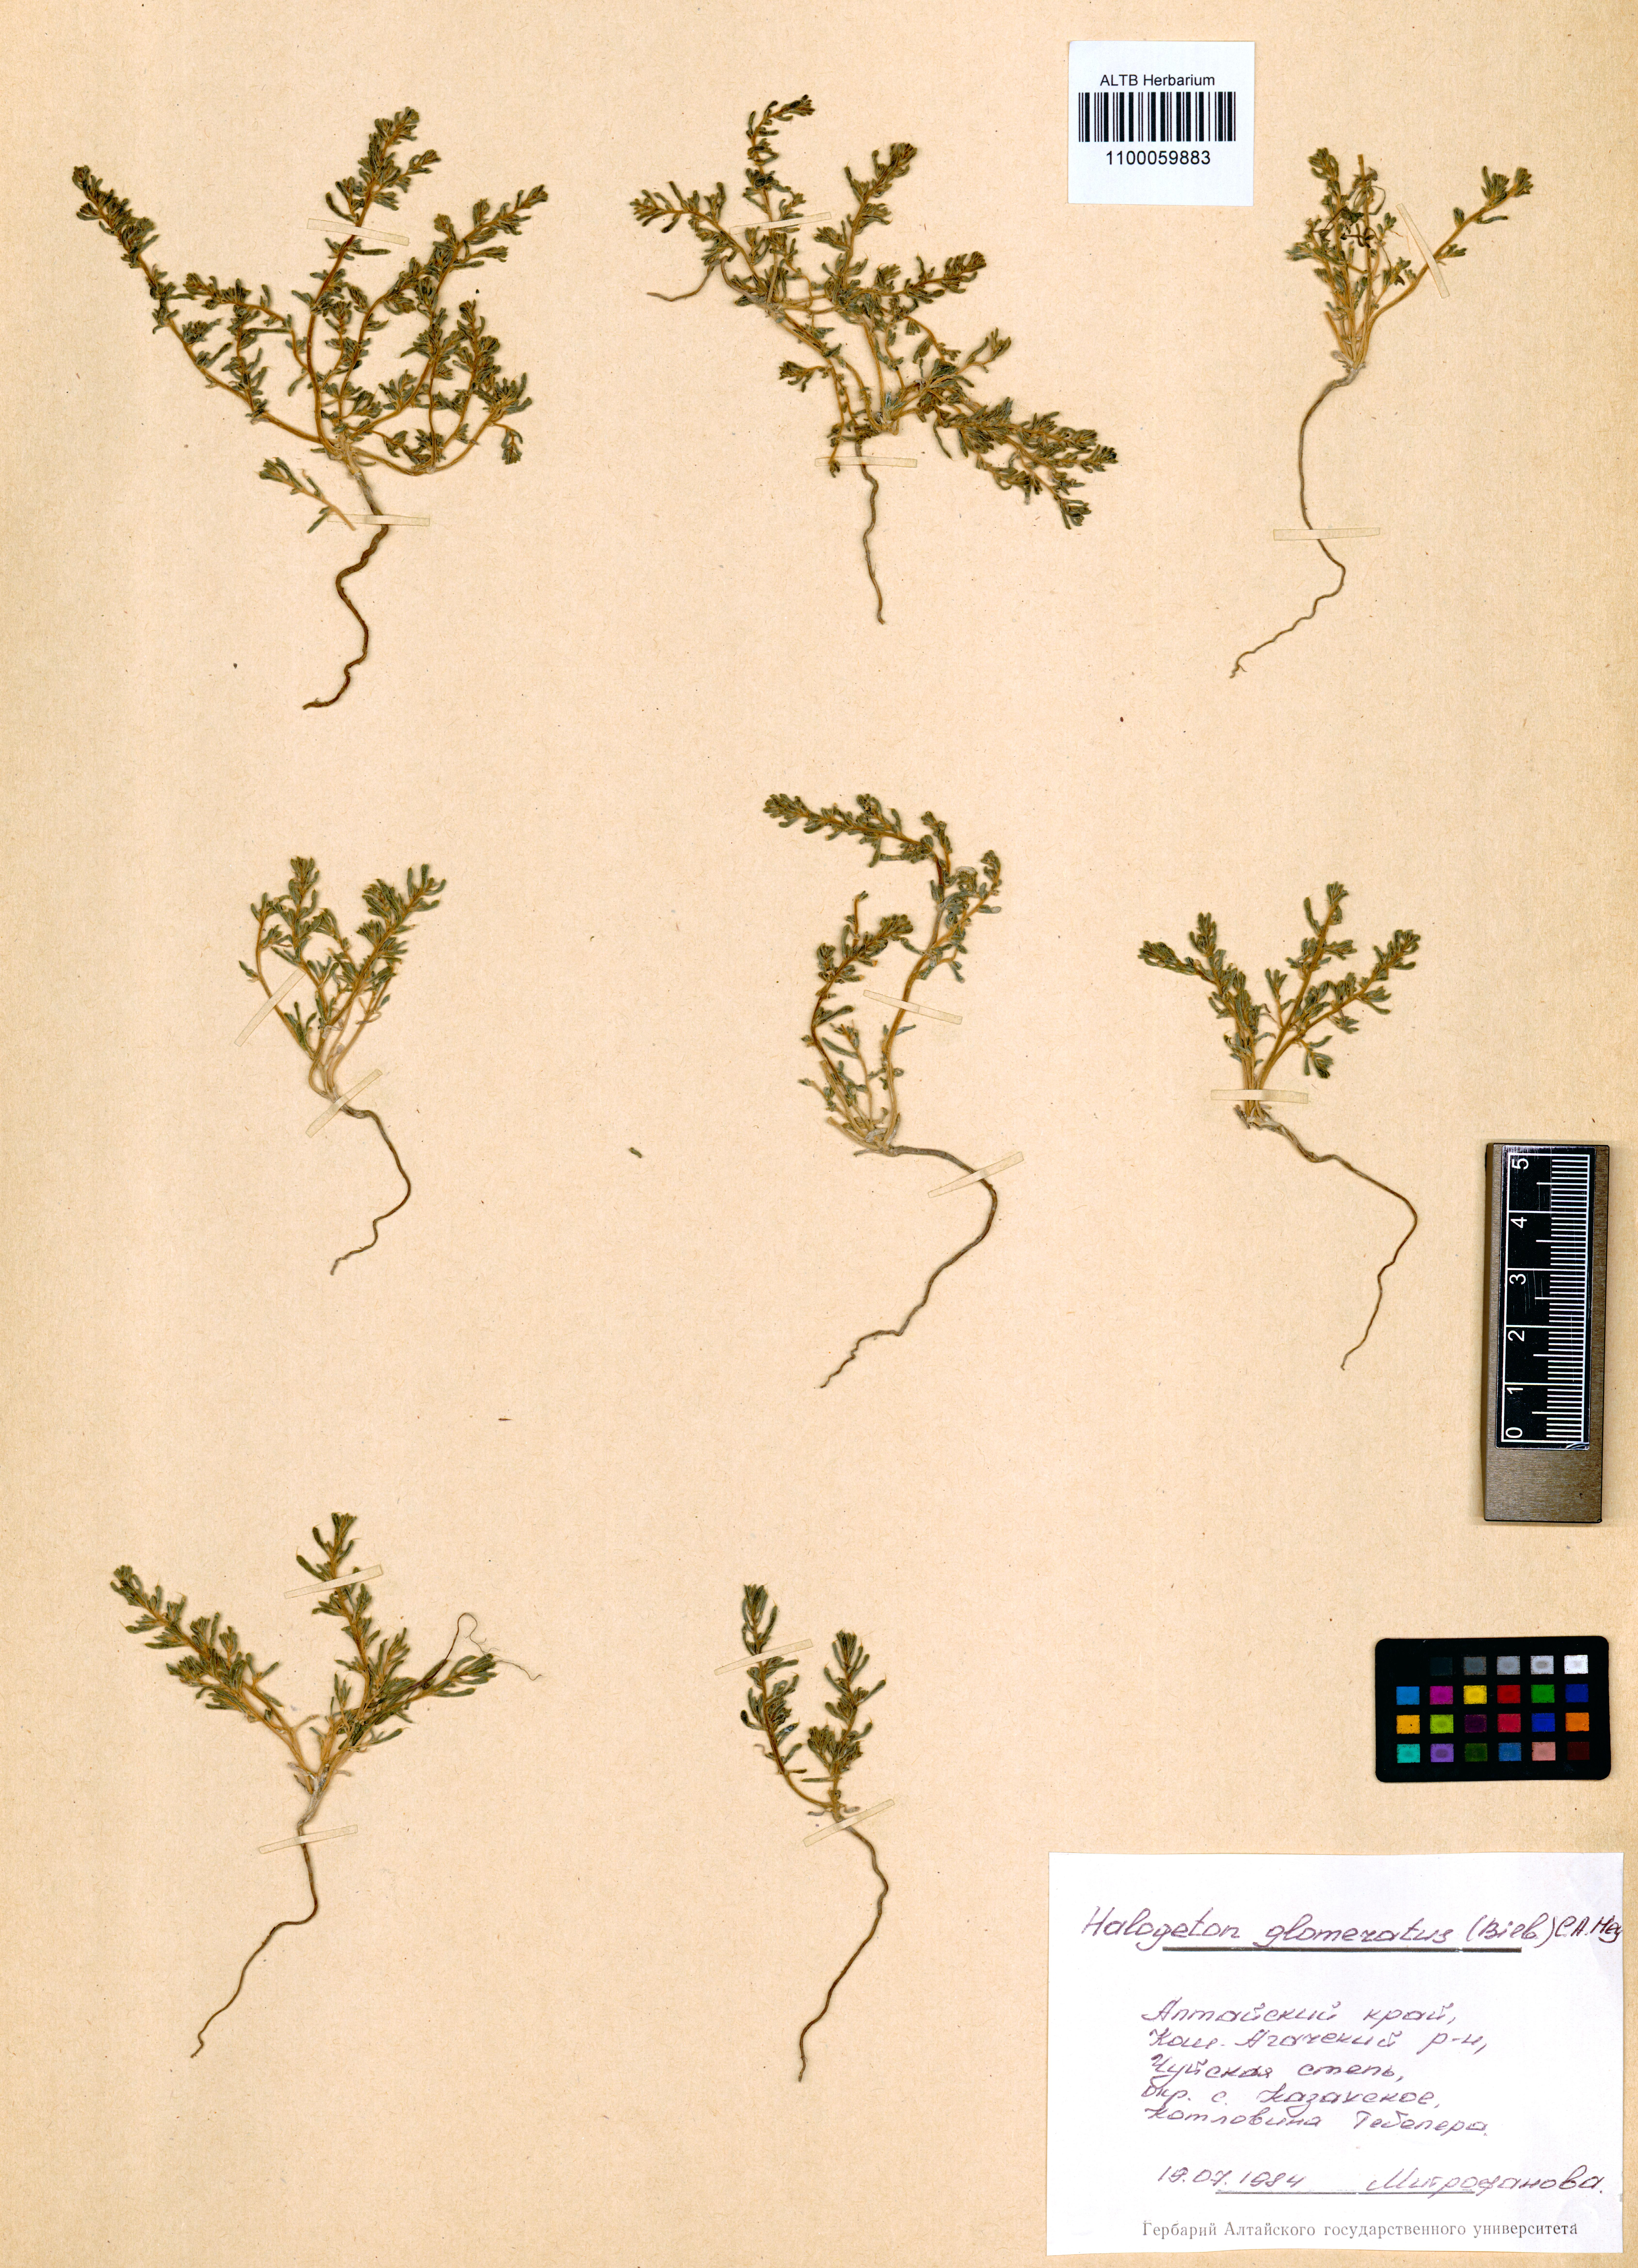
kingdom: Plantae
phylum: Tracheophyta
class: Magnoliopsida
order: Caryophyllales
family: Amaranthaceae
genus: Halogeton
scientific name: Halogeton glomeratus
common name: Saltlover
